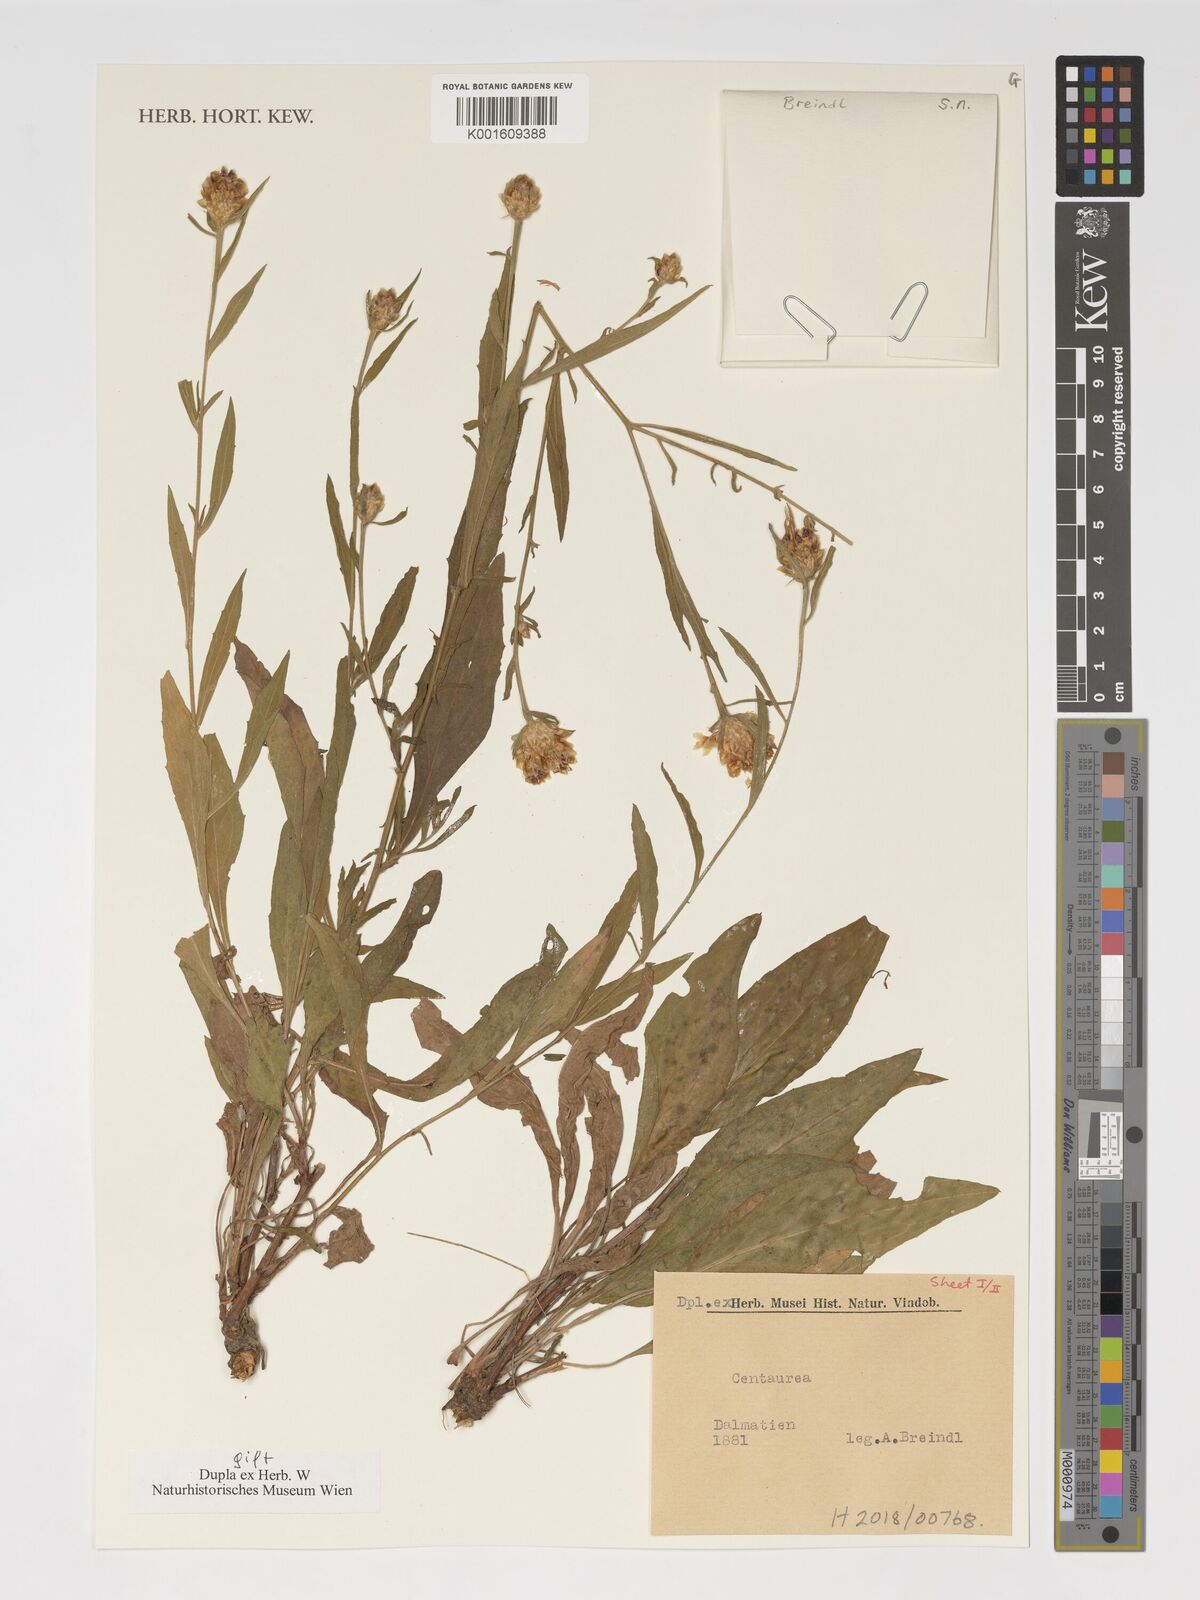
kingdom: Plantae
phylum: Tracheophyta
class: Magnoliopsida
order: Asterales
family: Asteraceae
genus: Centaurea
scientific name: Centaurea
